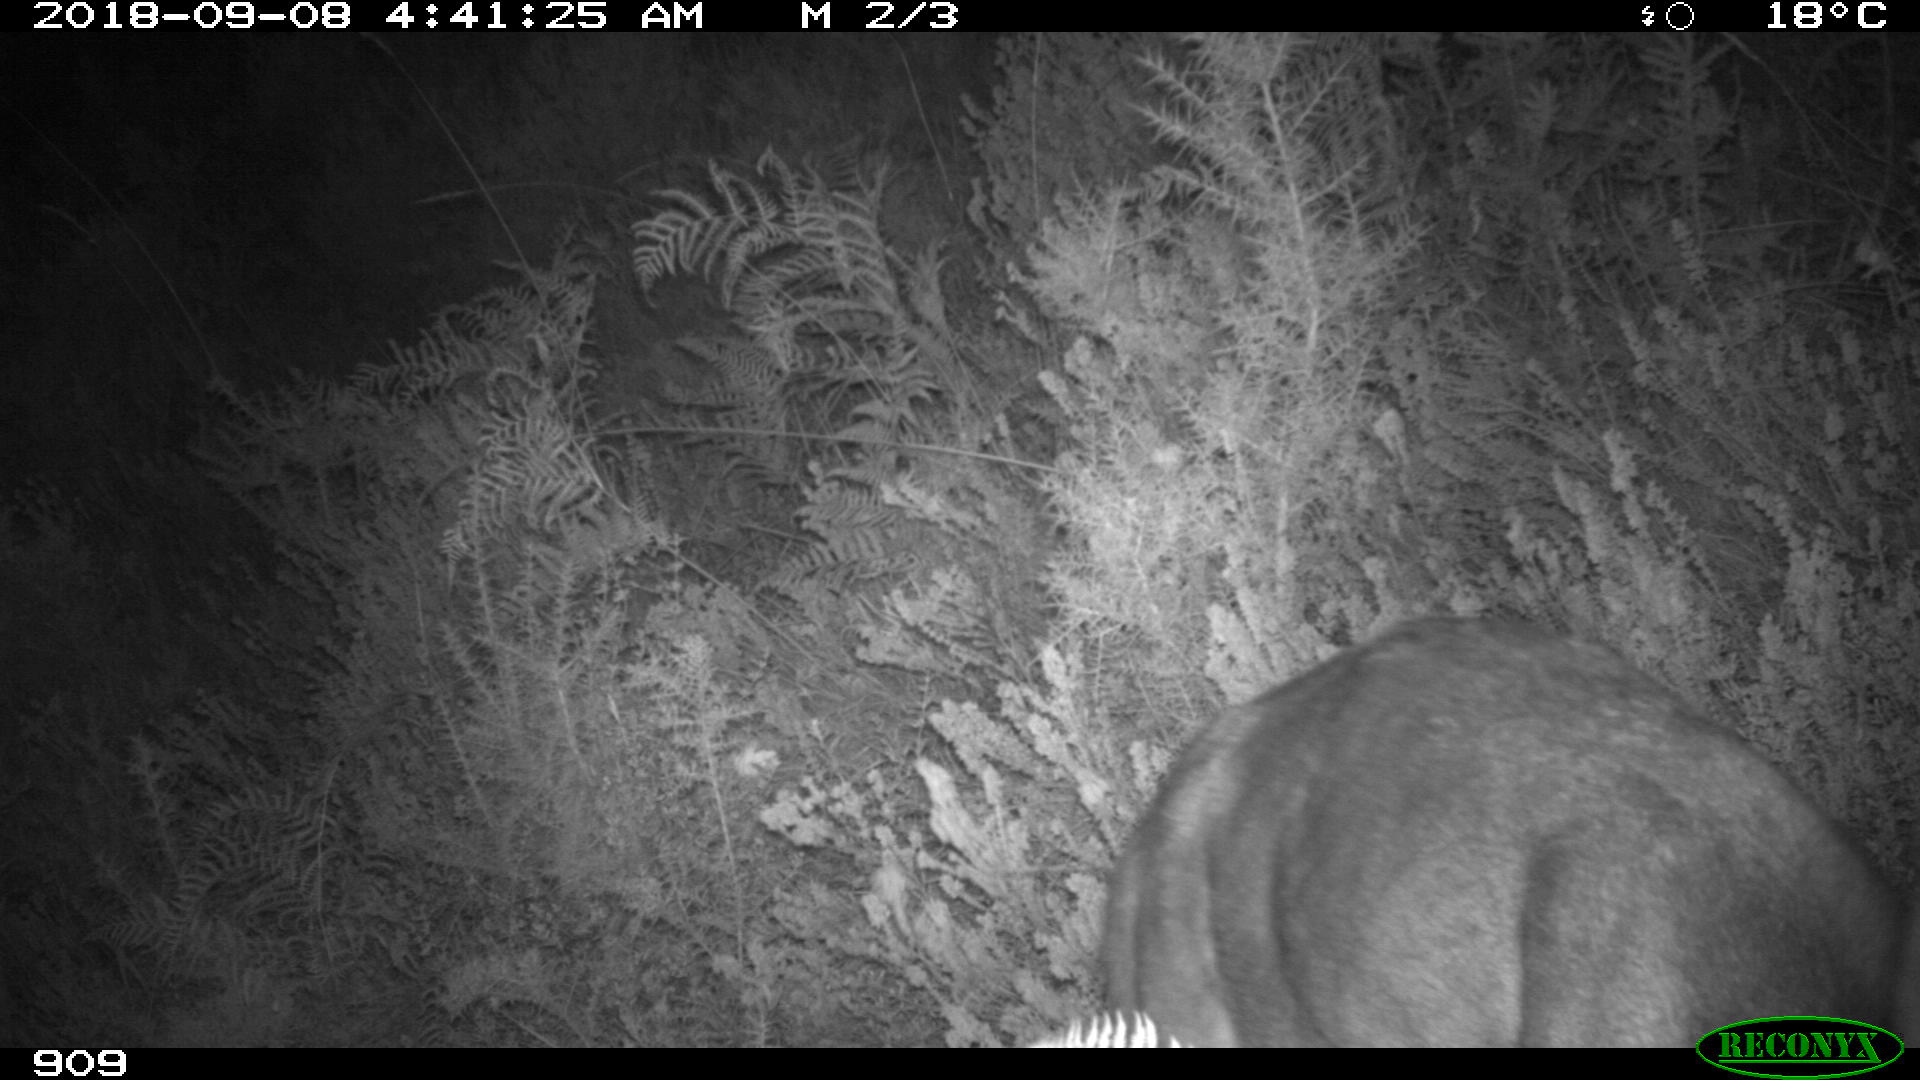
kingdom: Animalia
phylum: Chordata
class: Mammalia
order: Artiodactyla
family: Cervidae
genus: Capreolus
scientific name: Capreolus capreolus
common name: Western roe deer
